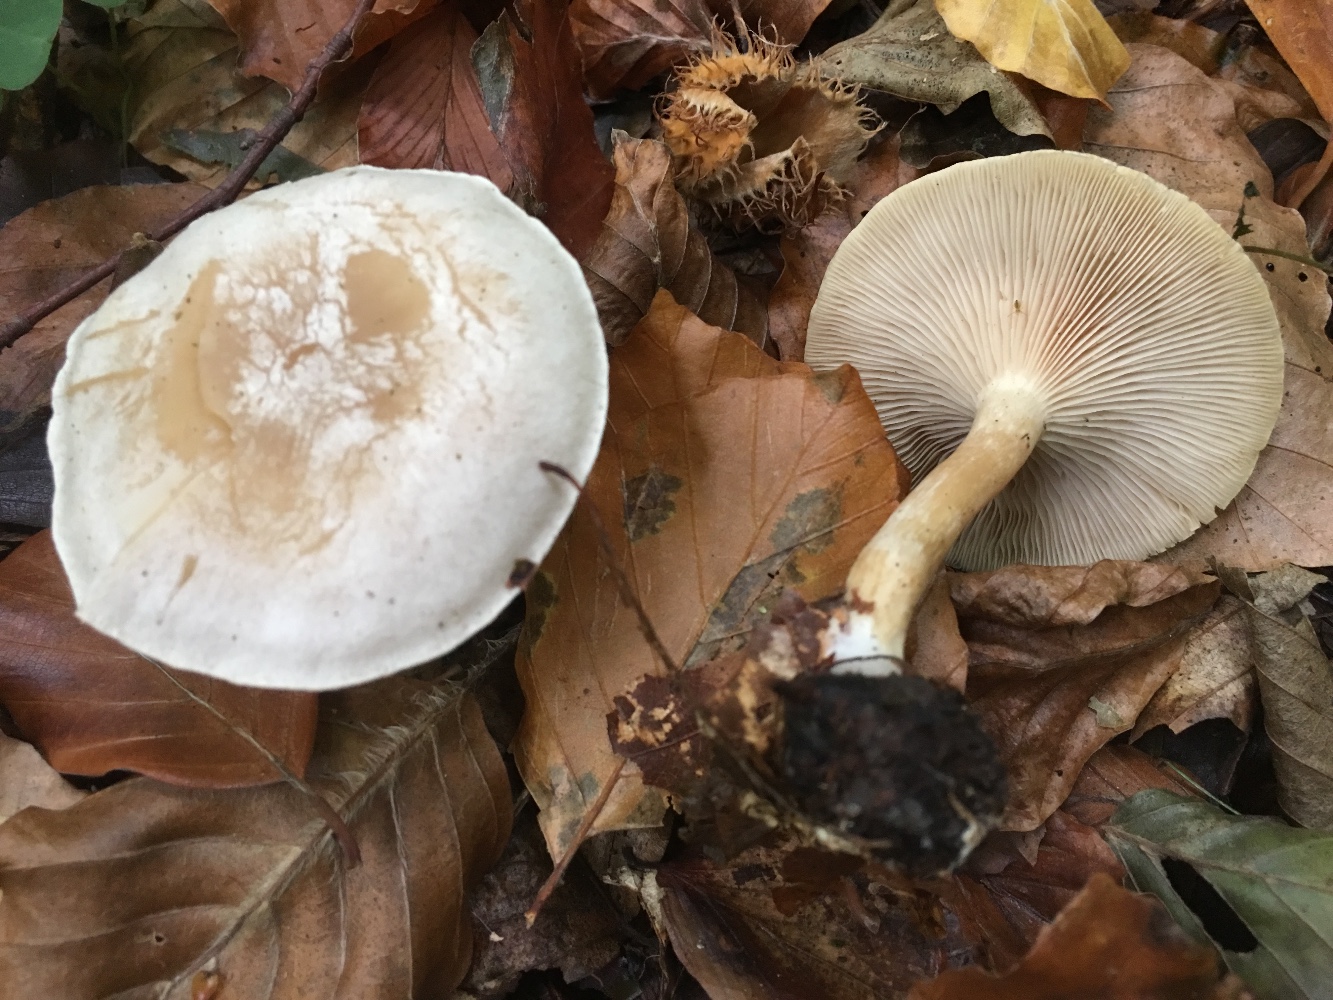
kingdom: Fungi
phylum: Basidiomycota
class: Agaricomycetes
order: Agaricales
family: Tricholomataceae
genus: Clitocybe
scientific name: Clitocybe
